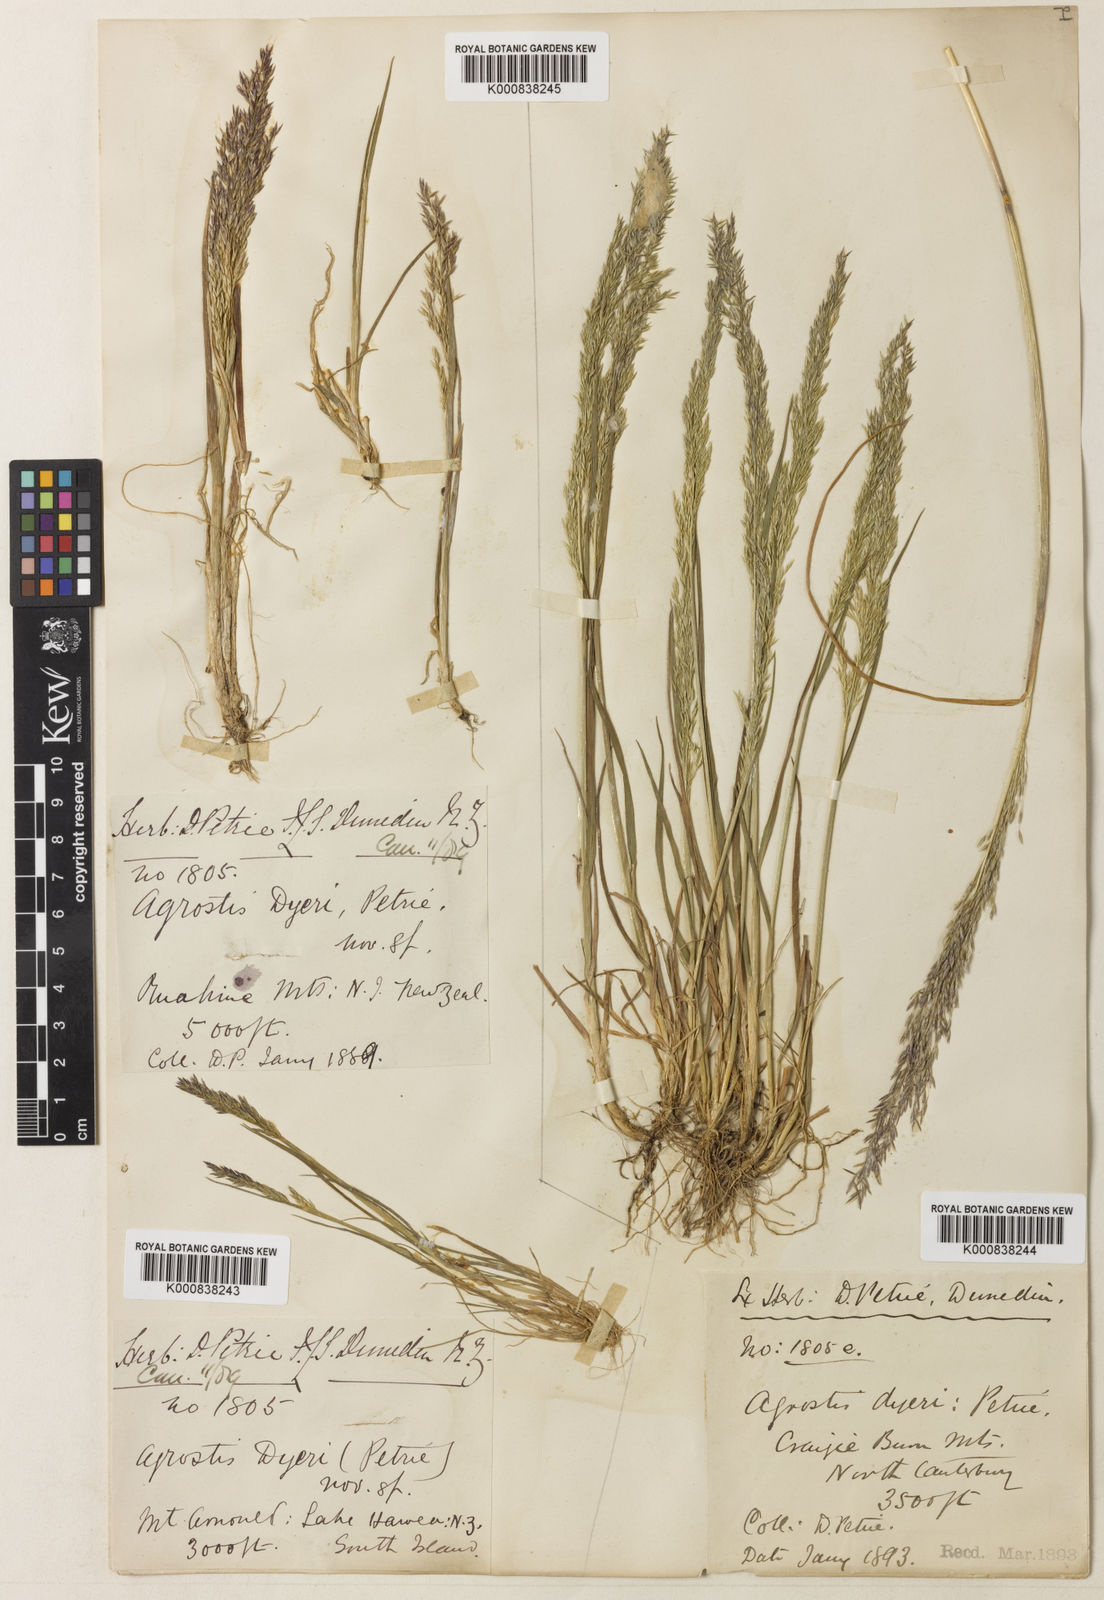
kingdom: Plantae
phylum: Tracheophyta
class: Liliopsida
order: Poales
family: Poaceae
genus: Agrostis
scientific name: Agrostis dyeri
